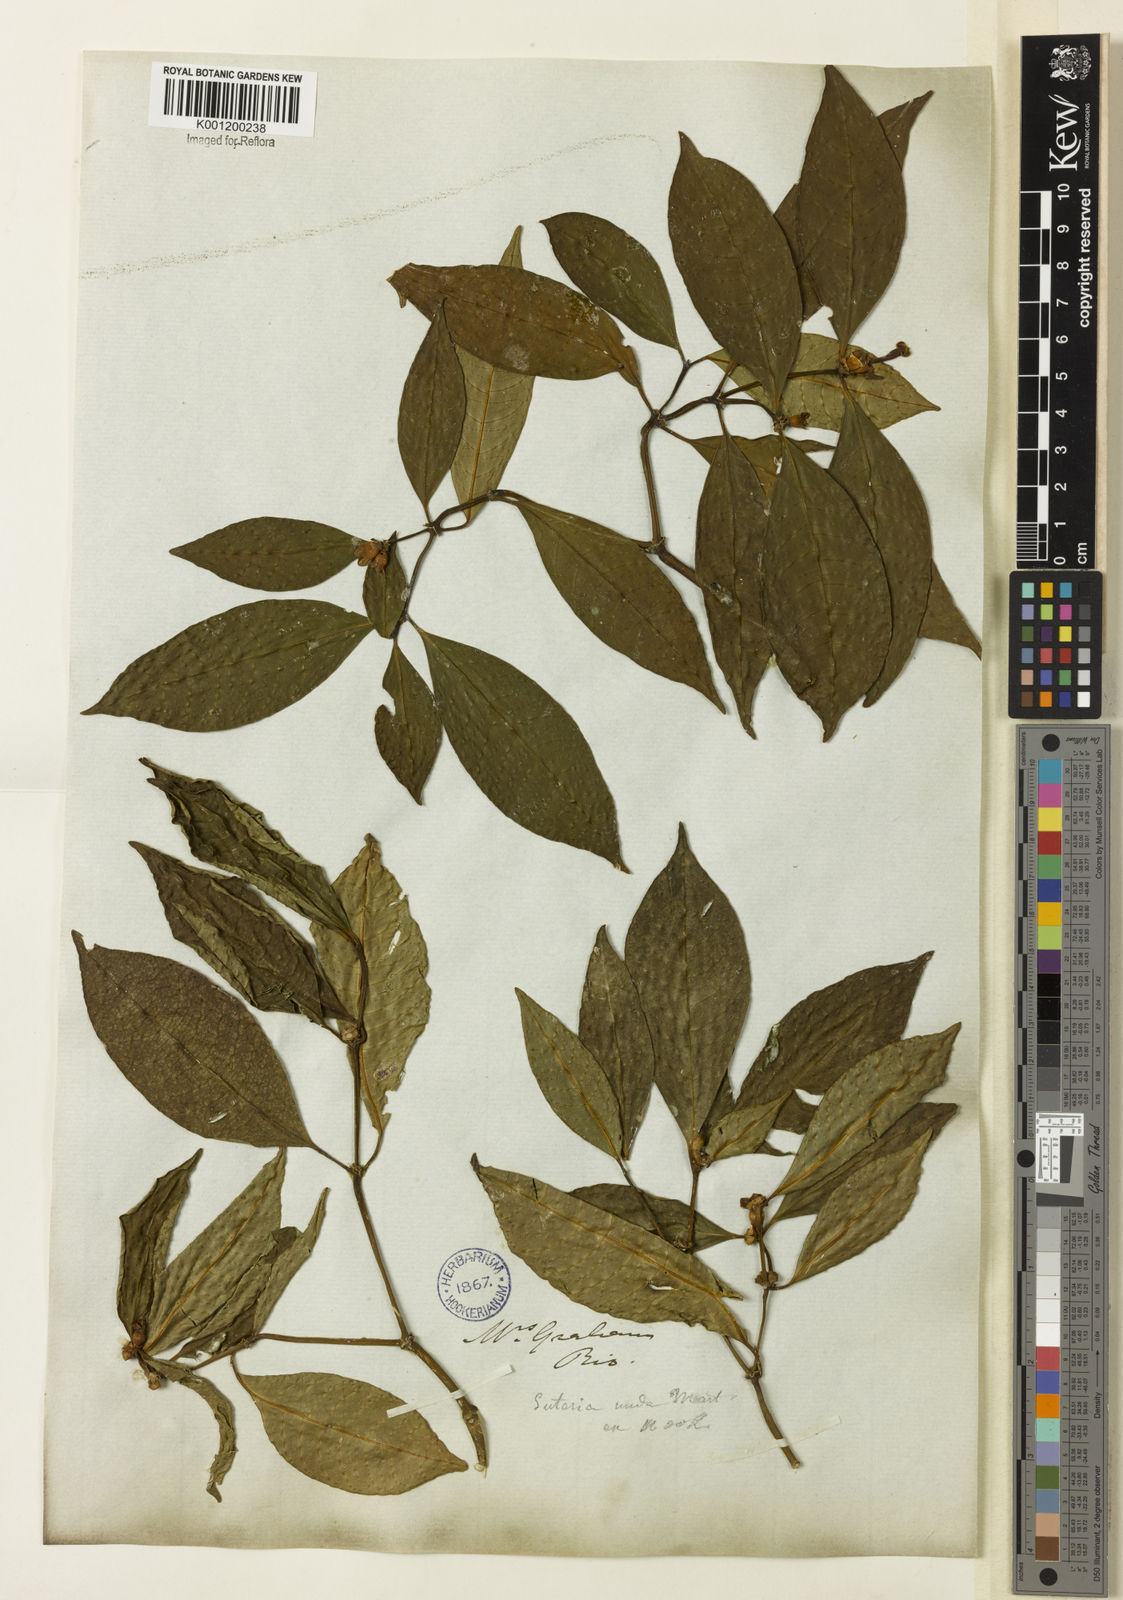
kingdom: Plantae
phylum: Tracheophyta
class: Magnoliopsida
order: Gentianales
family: Rubiaceae
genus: Psychotria
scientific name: Psychotria
